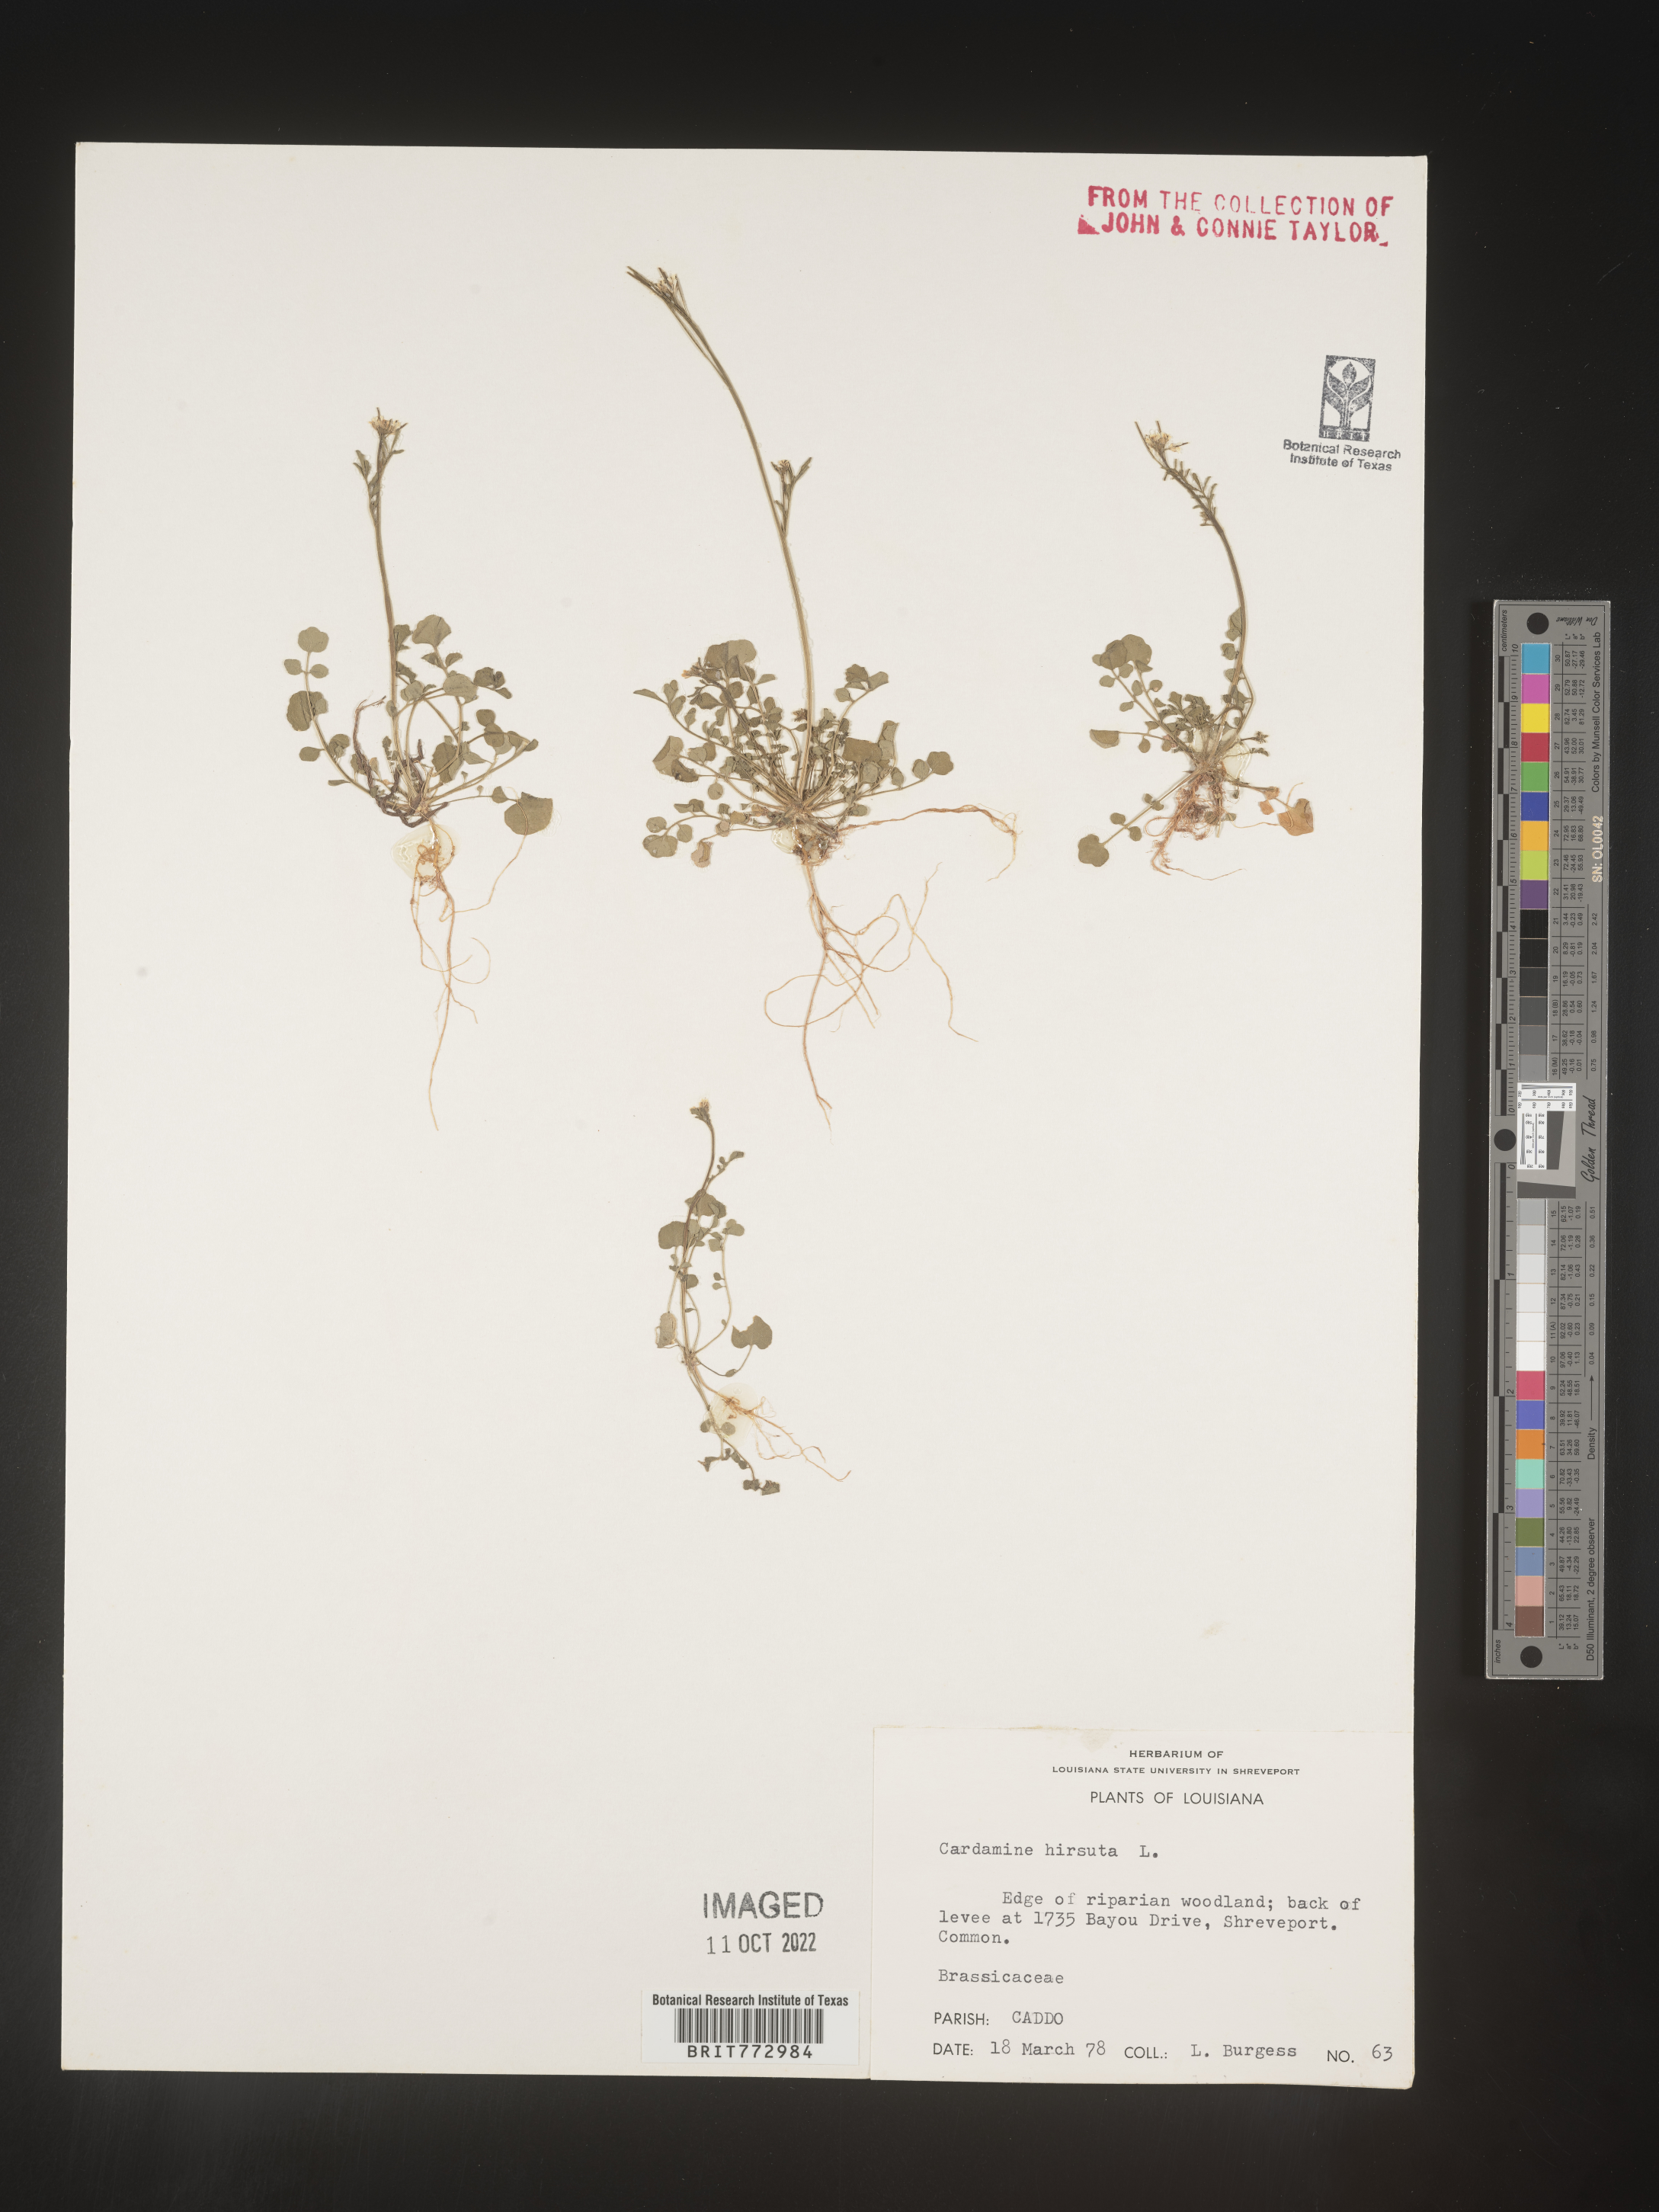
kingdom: Plantae
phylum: Tracheophyta
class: Magnoliopsida
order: Brassicales
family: Brassicaceae
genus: Cardamine
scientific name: Cardamine hirsuta
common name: Hairy bittercress
